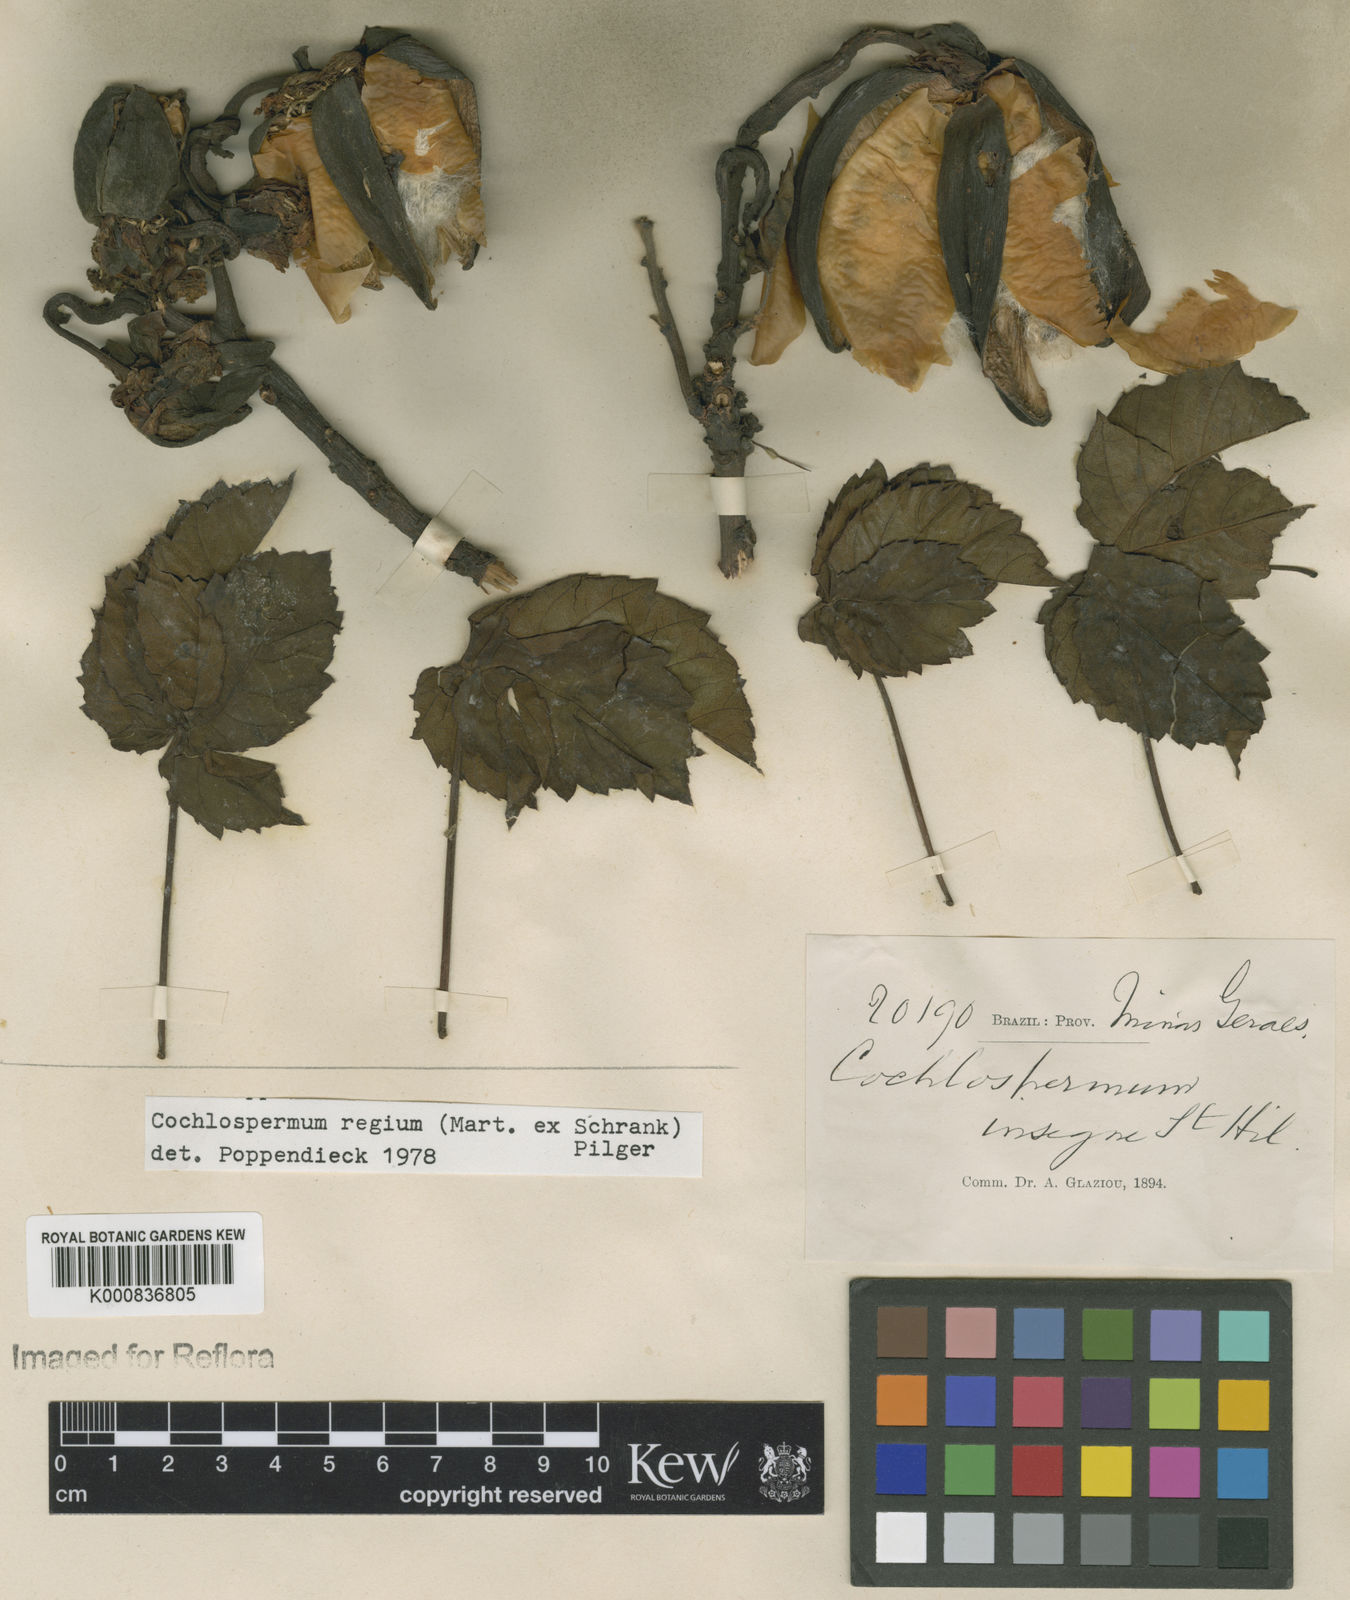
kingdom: Plantae
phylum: Tracheophyta
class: Magnoliopsida
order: Malvales
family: Cochlospermaceae
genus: Cochlospermum
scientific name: Cochlospermum regium
